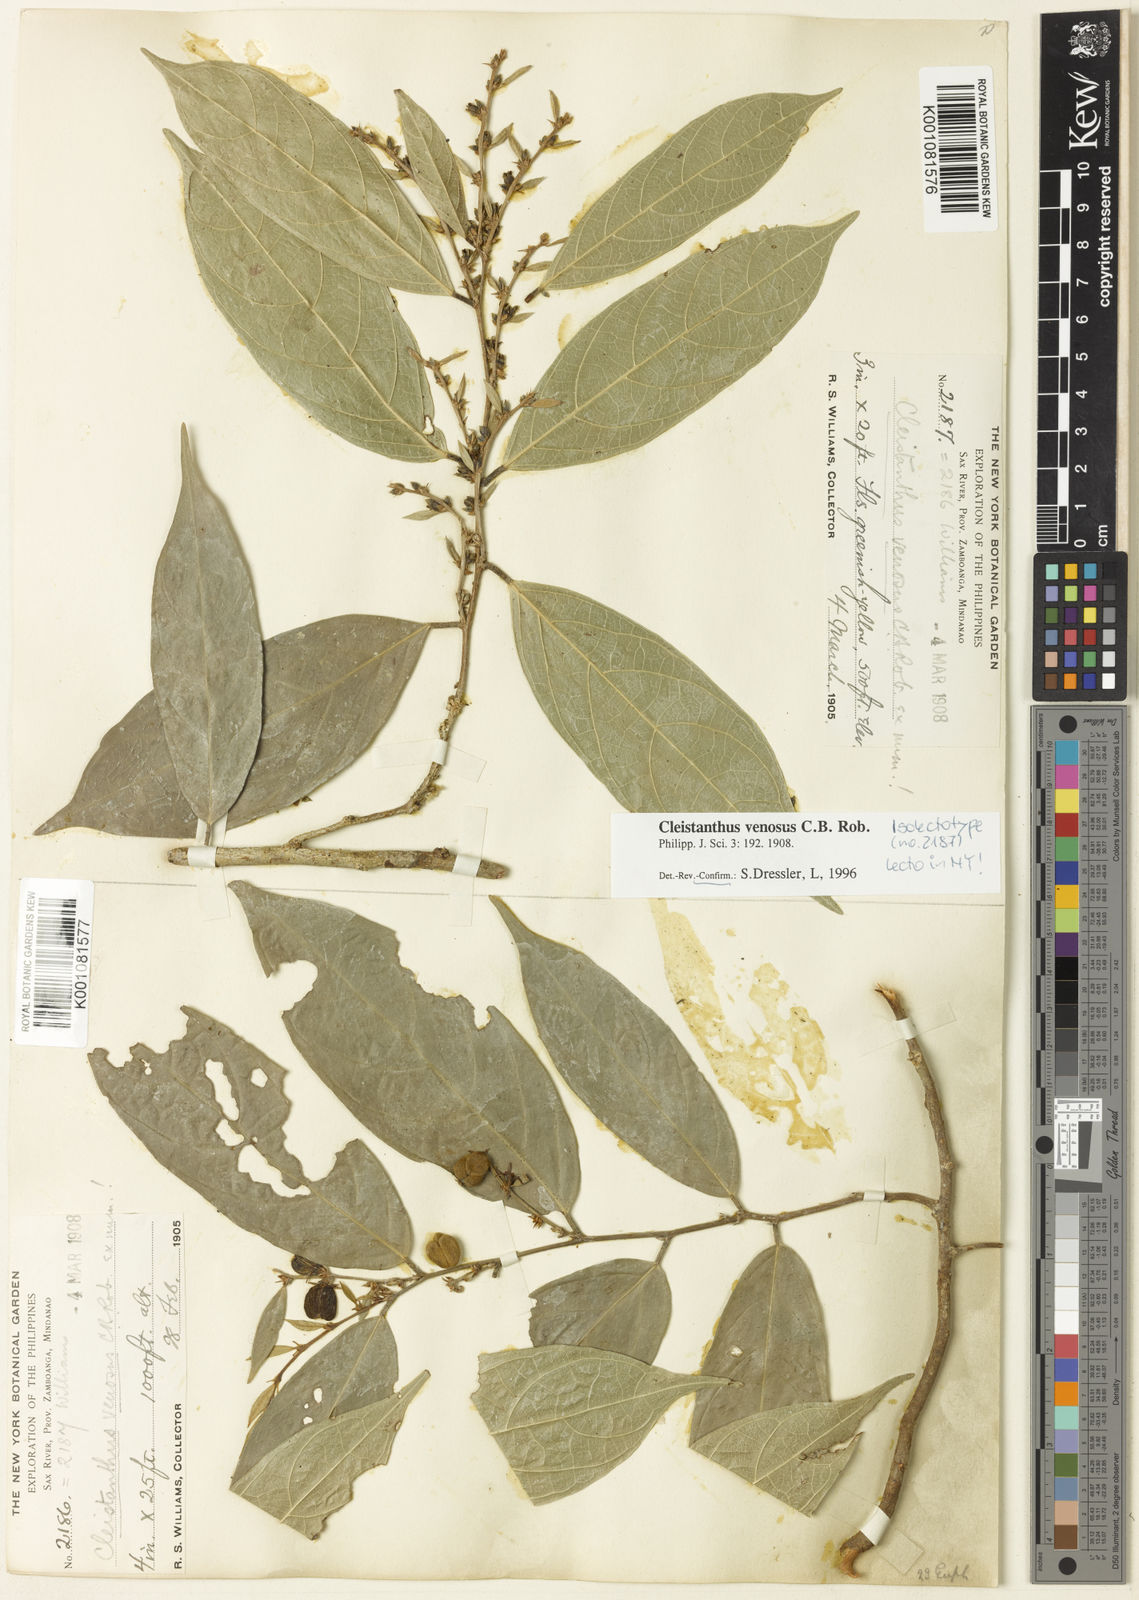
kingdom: Plantae
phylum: Tracheophyta
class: Magnoliopsida
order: Malpighiales
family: Phyllanthaceae
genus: Cleistanthus
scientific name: Cleistanthus venosus
